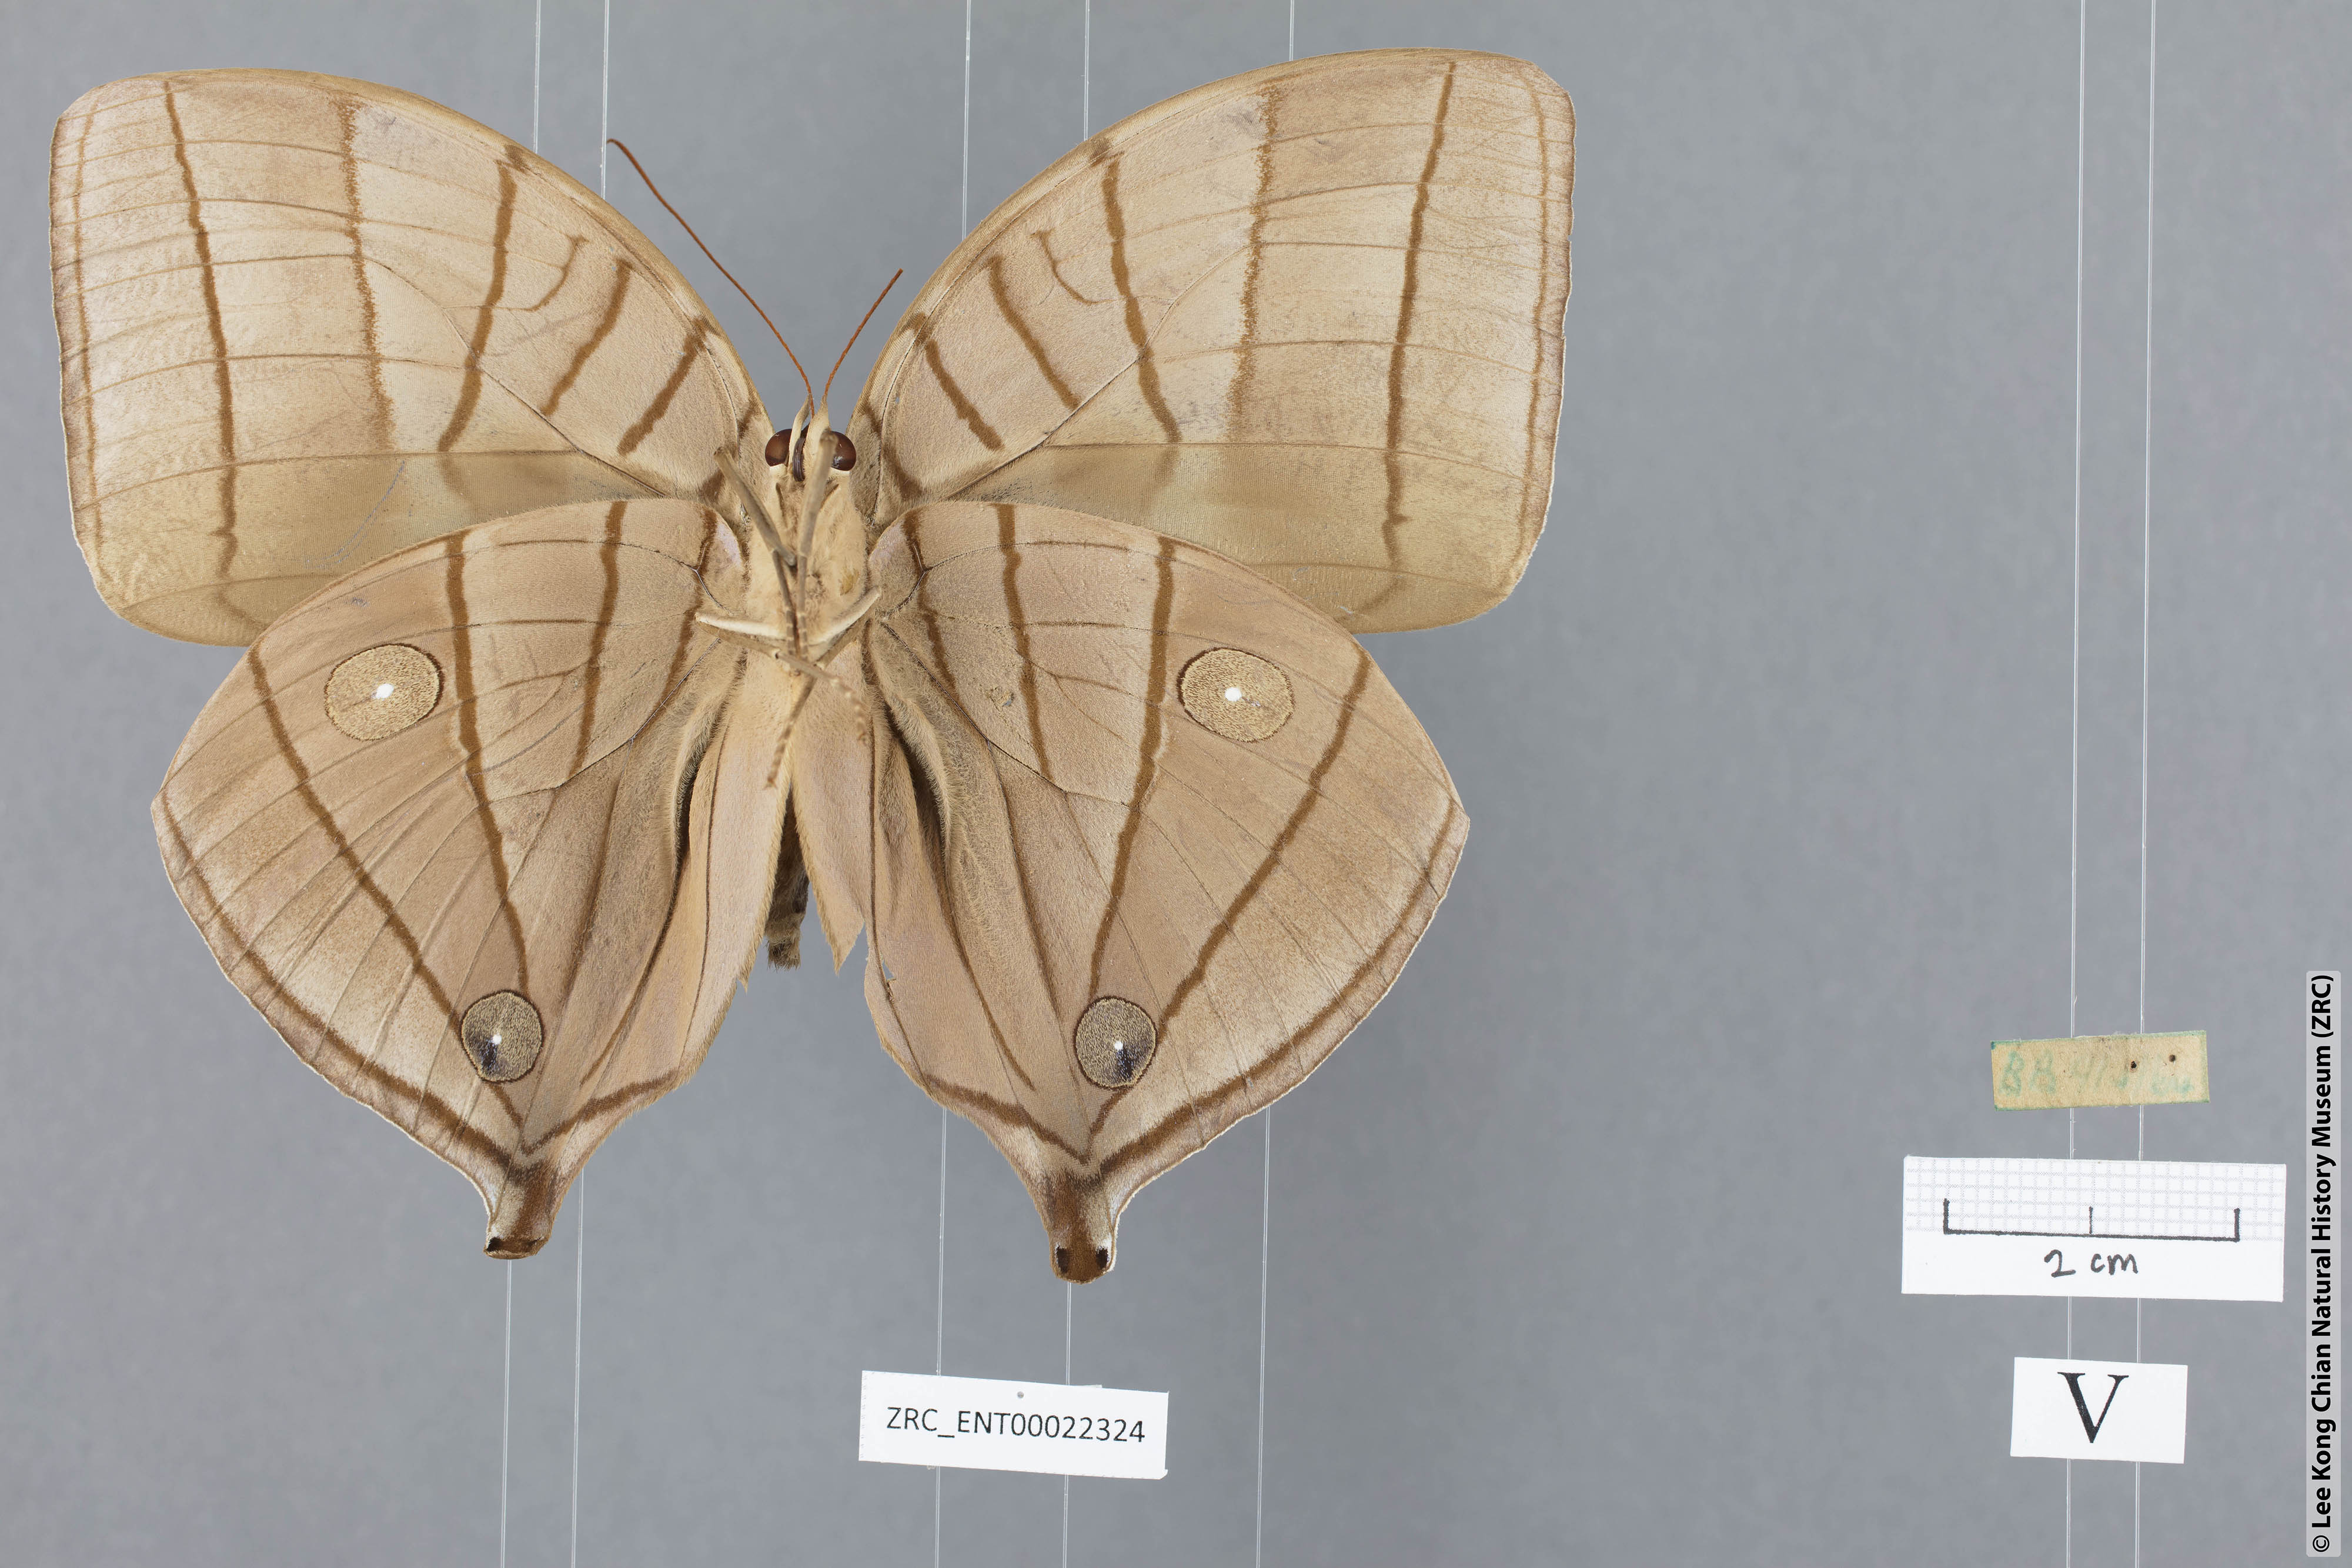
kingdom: Animalia
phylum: Arthropoda
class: Insecta
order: Lepidoptera
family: Nymphalidae
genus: Amathusia
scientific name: Amathusia
